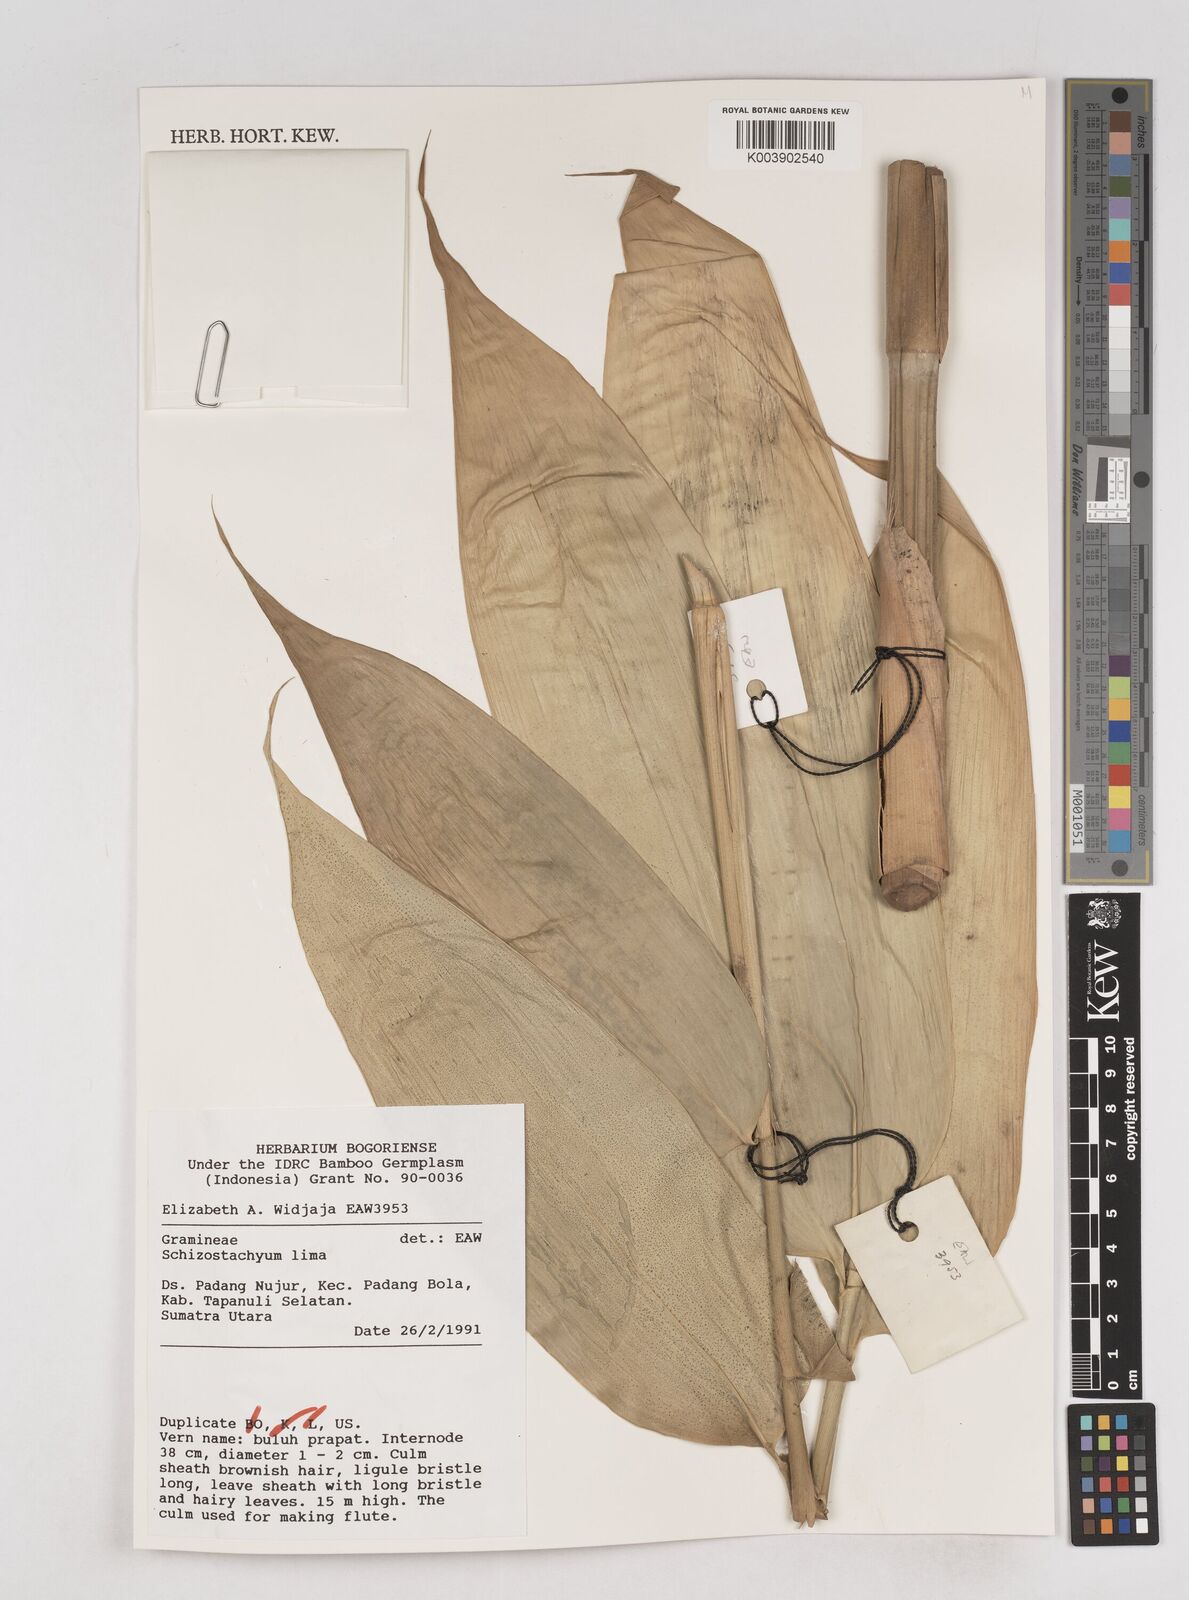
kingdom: Plantae
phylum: Tracheophyta
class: Liliopsida
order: Poales
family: Poaceae
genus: Schizostachyum
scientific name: Schizostachyum
